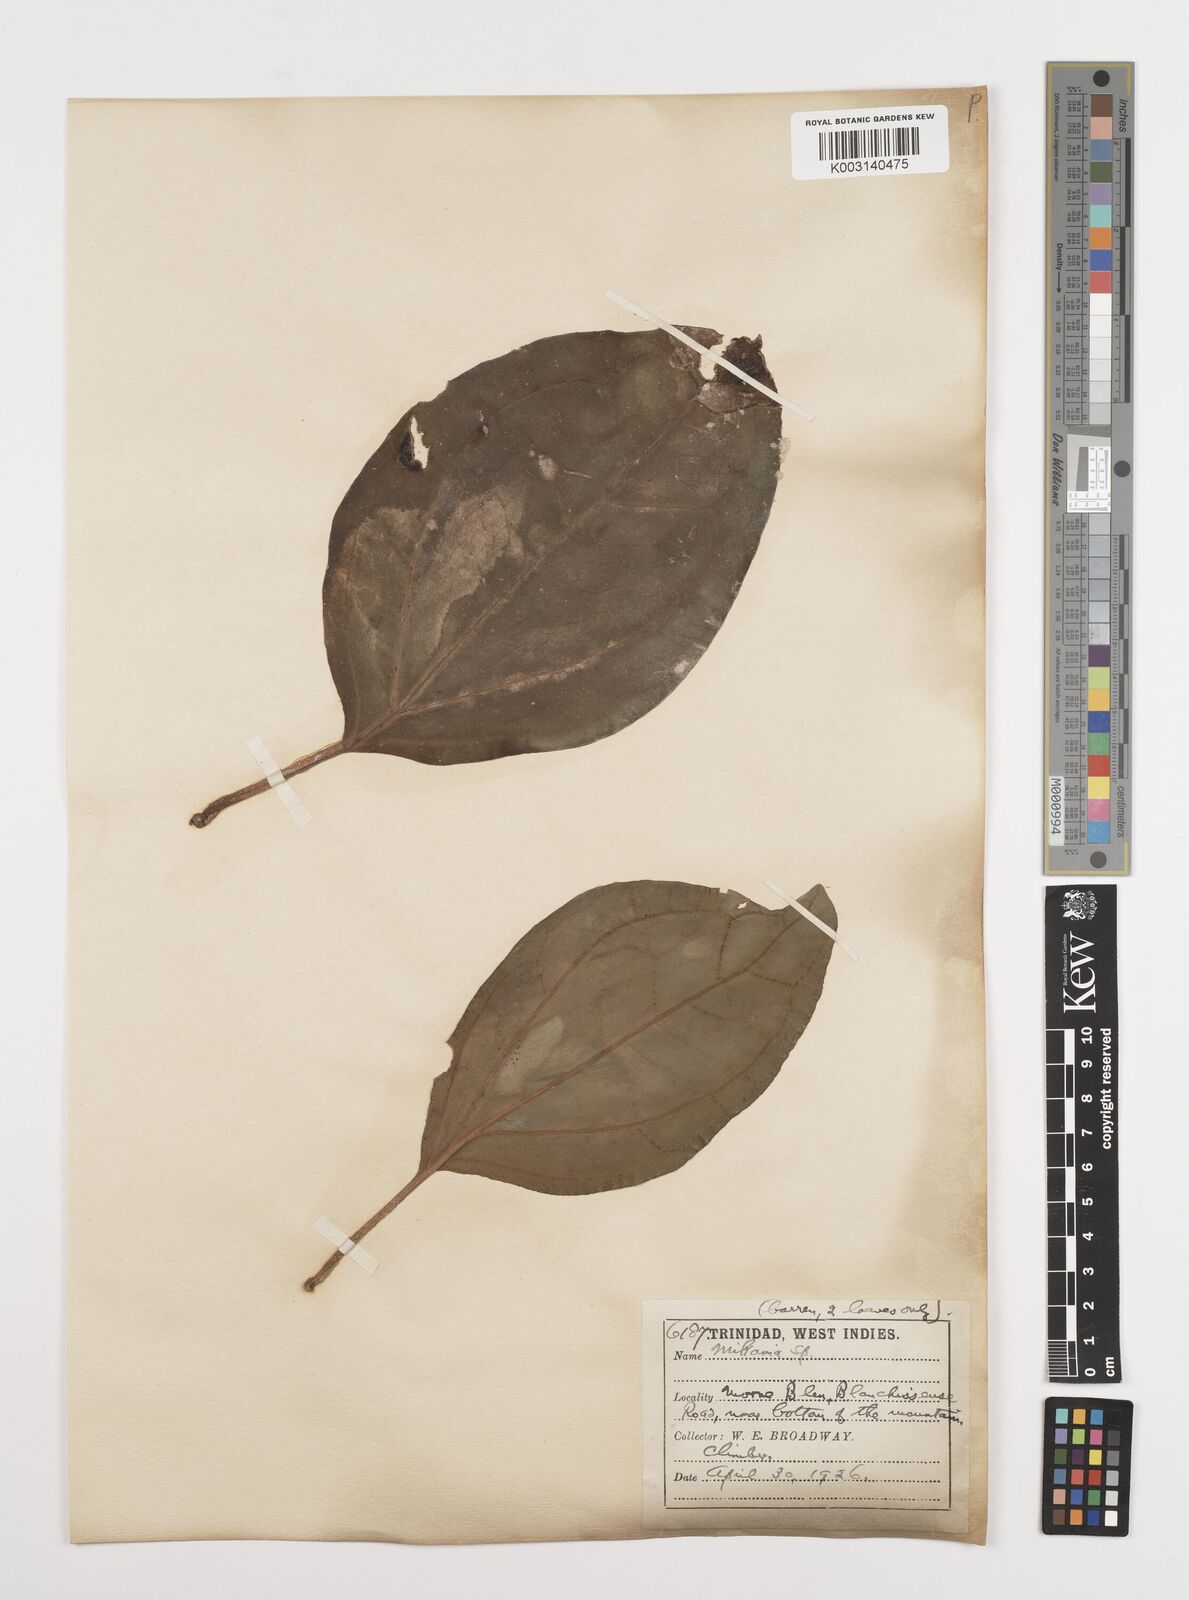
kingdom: Plantae
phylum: Tracheophyta
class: Magnoliopsida
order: Asterales
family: Asteraceae
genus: Mikania
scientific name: Mikania hookeriana
